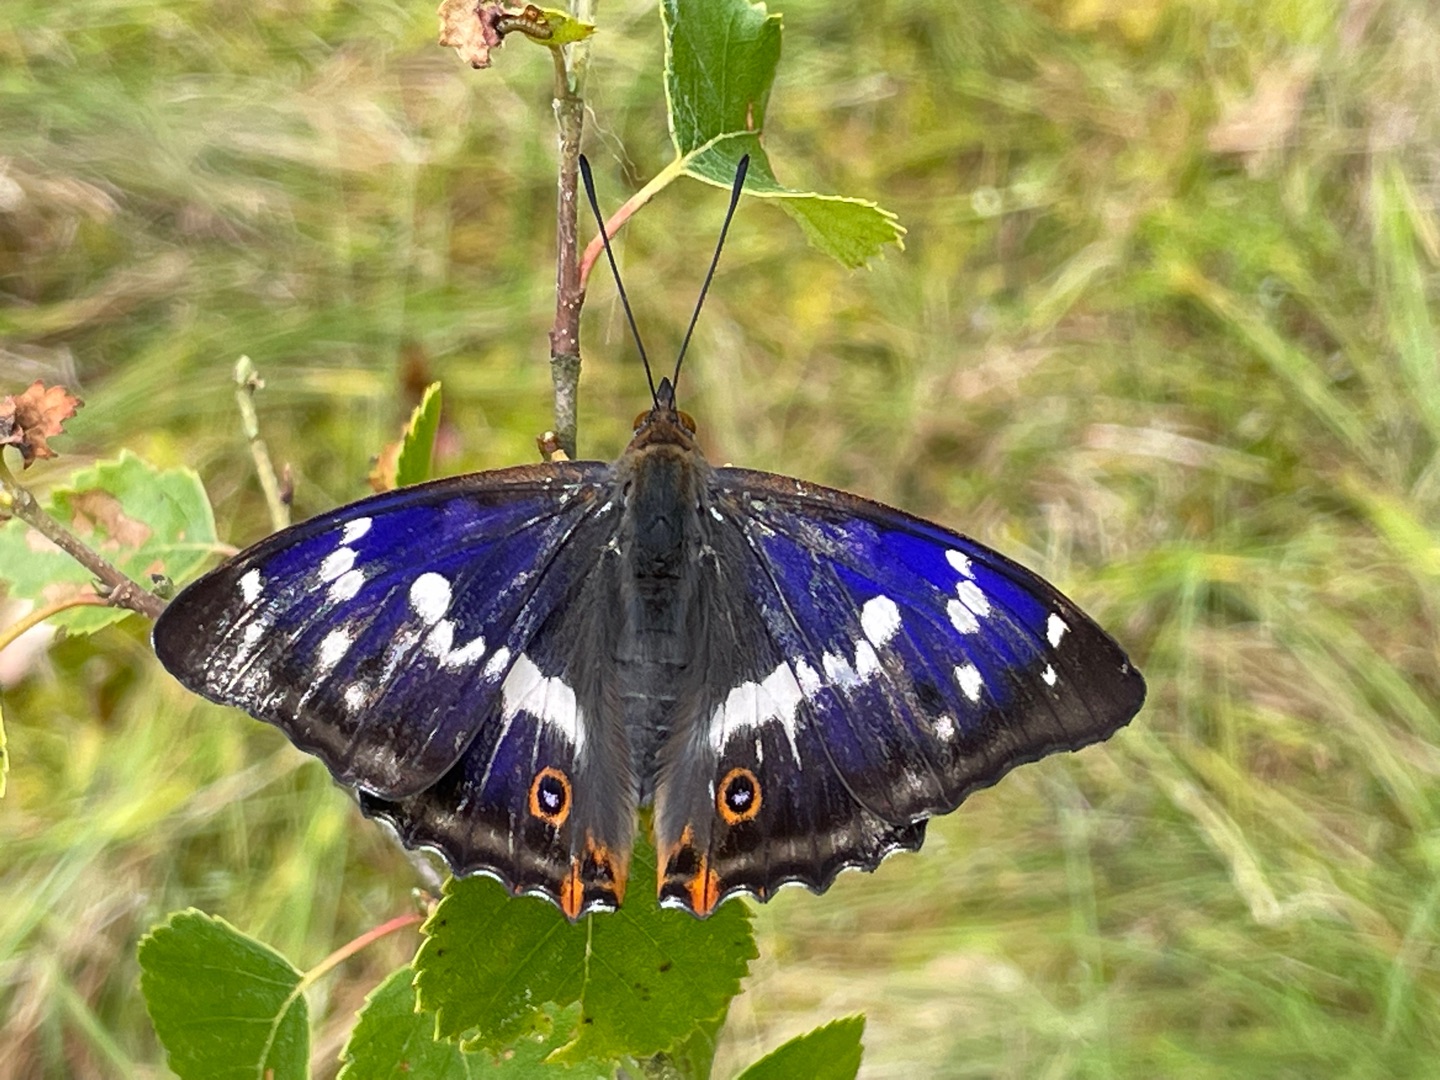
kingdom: Animalia
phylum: Arthropoda
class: Insecta
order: Lepidoptera
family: Nymphalidae
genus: Apatura
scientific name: Apatura iris
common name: Iris
